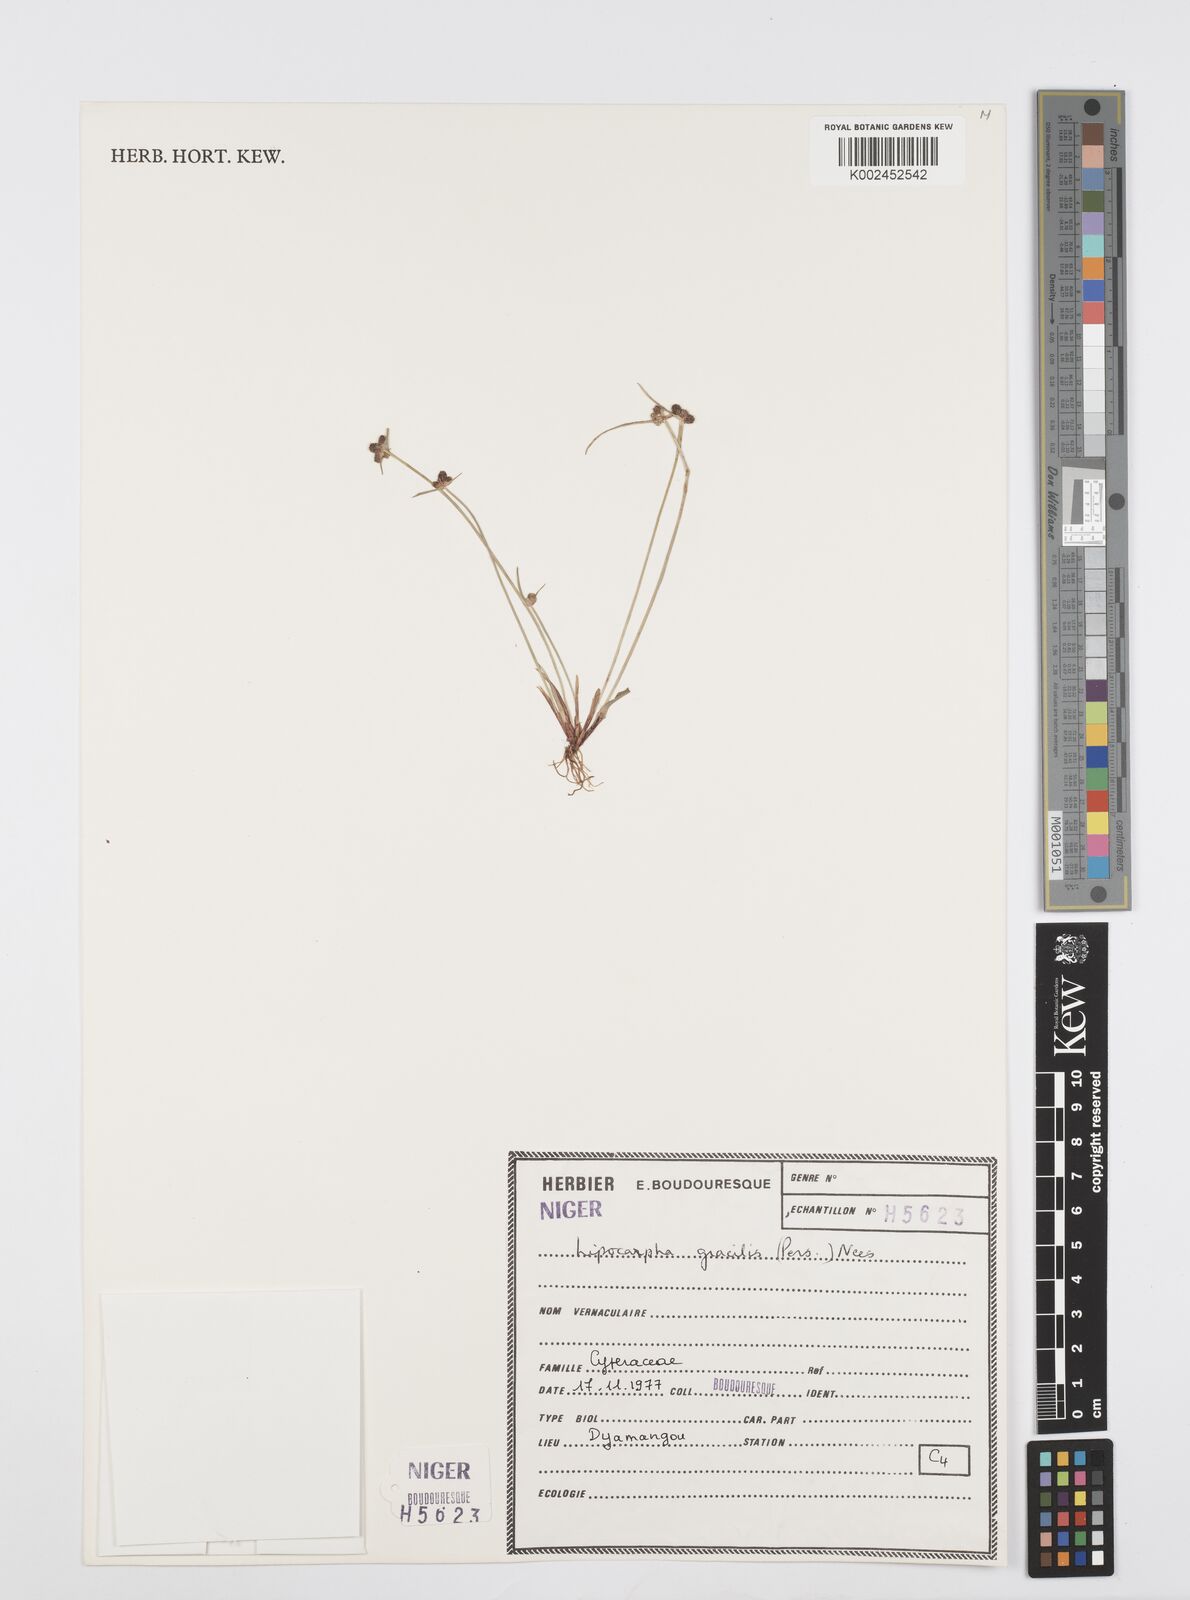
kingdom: Plantae
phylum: Tracheophyta
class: Liliopsida
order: Poales
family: Cyperaceae
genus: Cyperus
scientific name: Cyperus filiformis
